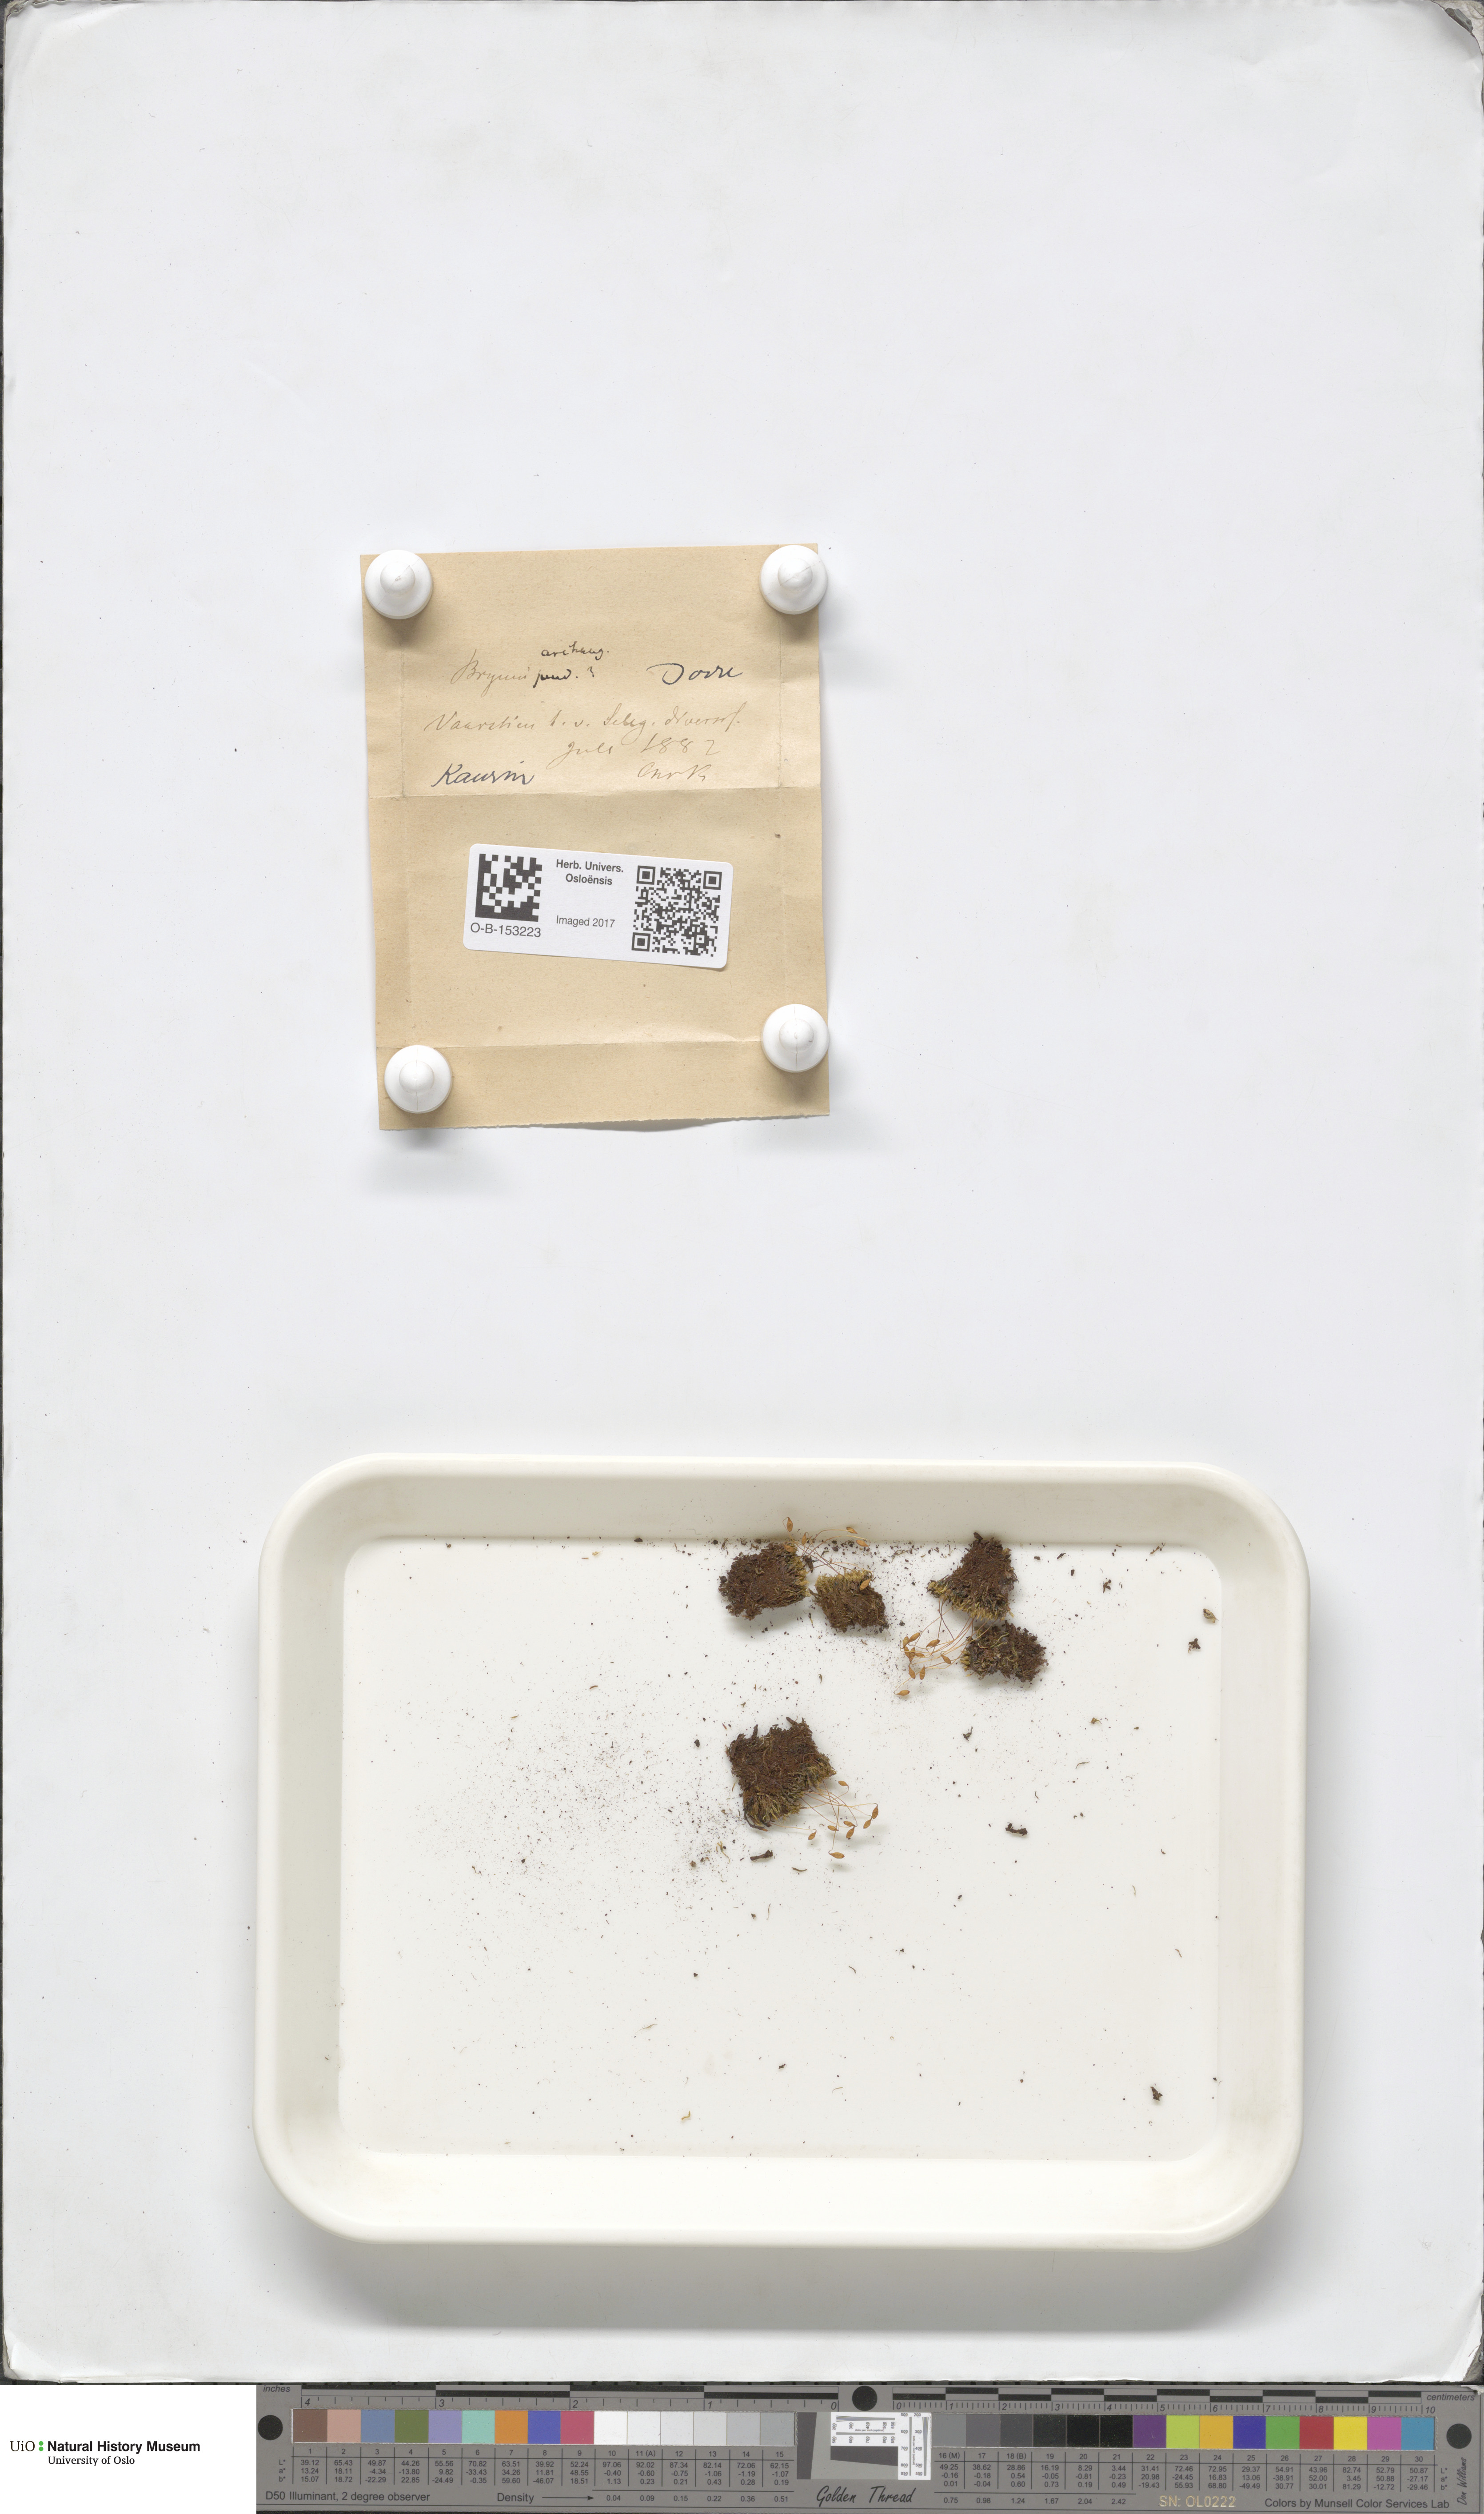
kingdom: Plantae
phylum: Bryophyta
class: Bryopsida
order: Bryales
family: Bryaceae
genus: Ptychostomum
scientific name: Ptychostomum inclinatum
